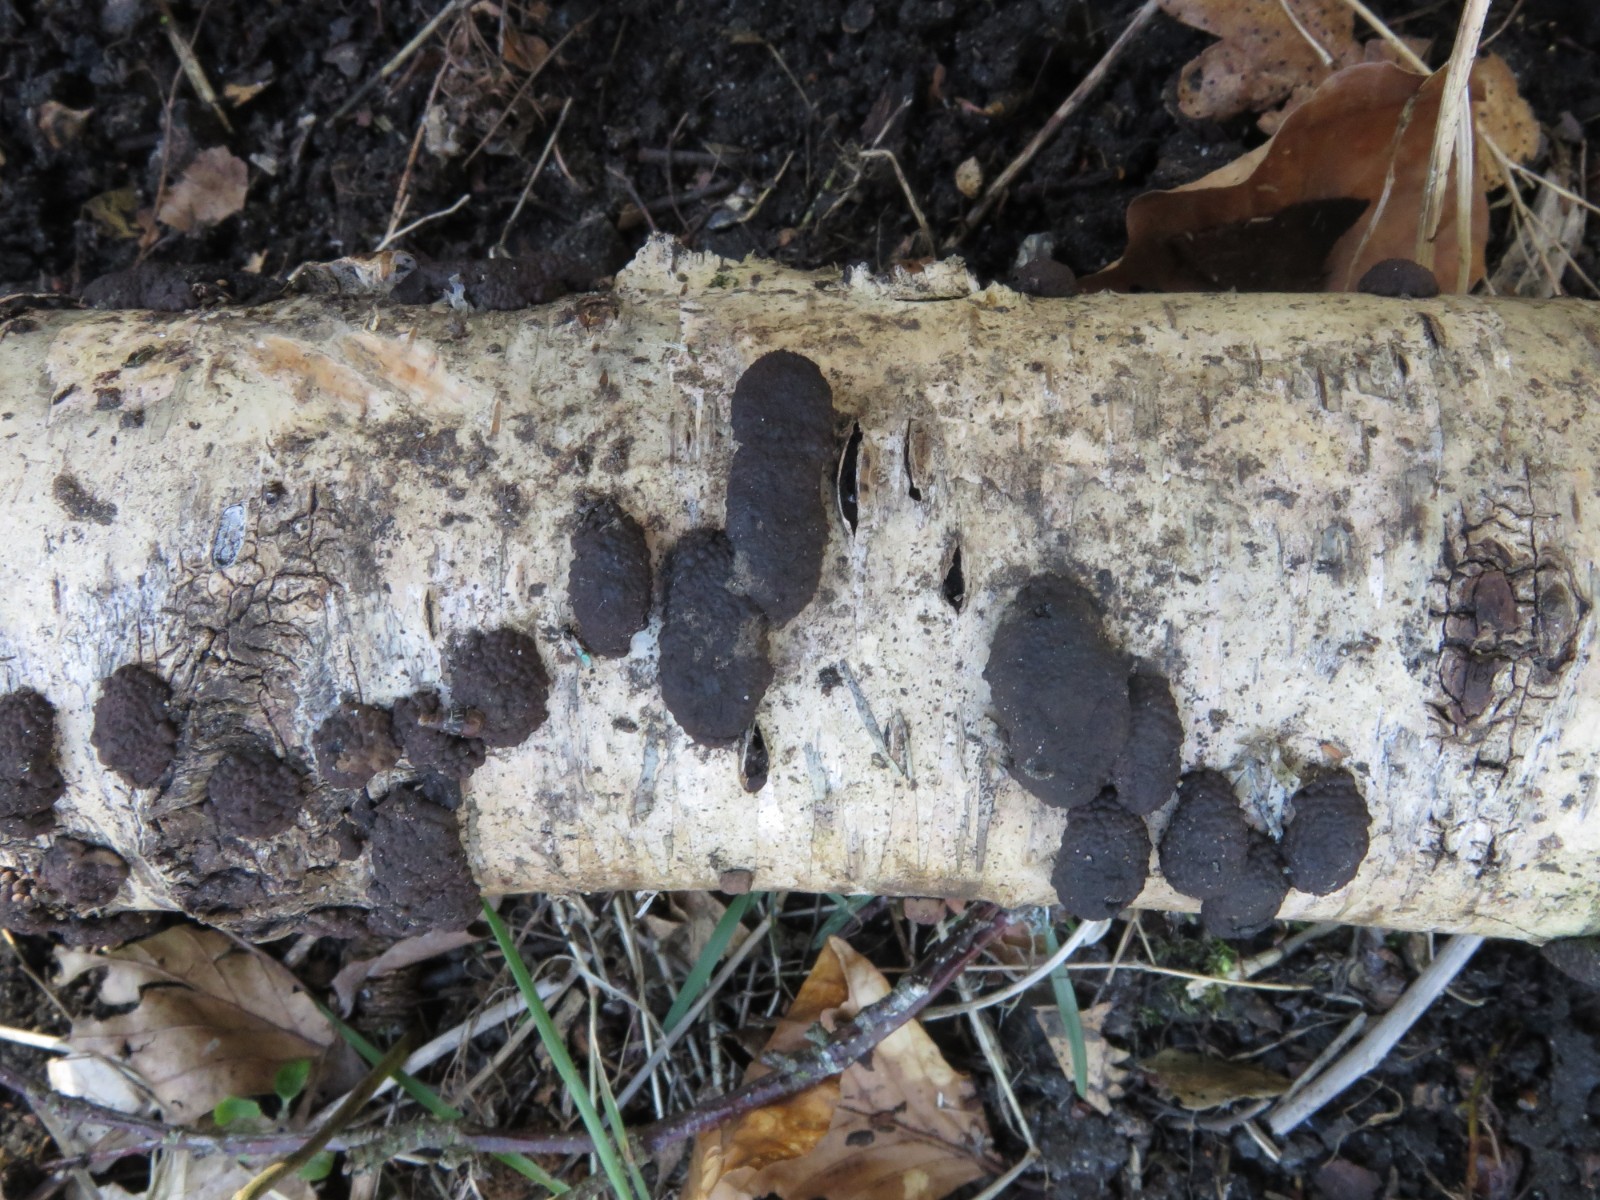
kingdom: Fungi
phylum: Ascomycota
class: Sordariomycetes
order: Xylariales
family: Hypoxylaceae
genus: Jackrogersella
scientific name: Jackrogersella multiformis
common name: foranderlig kulbær
